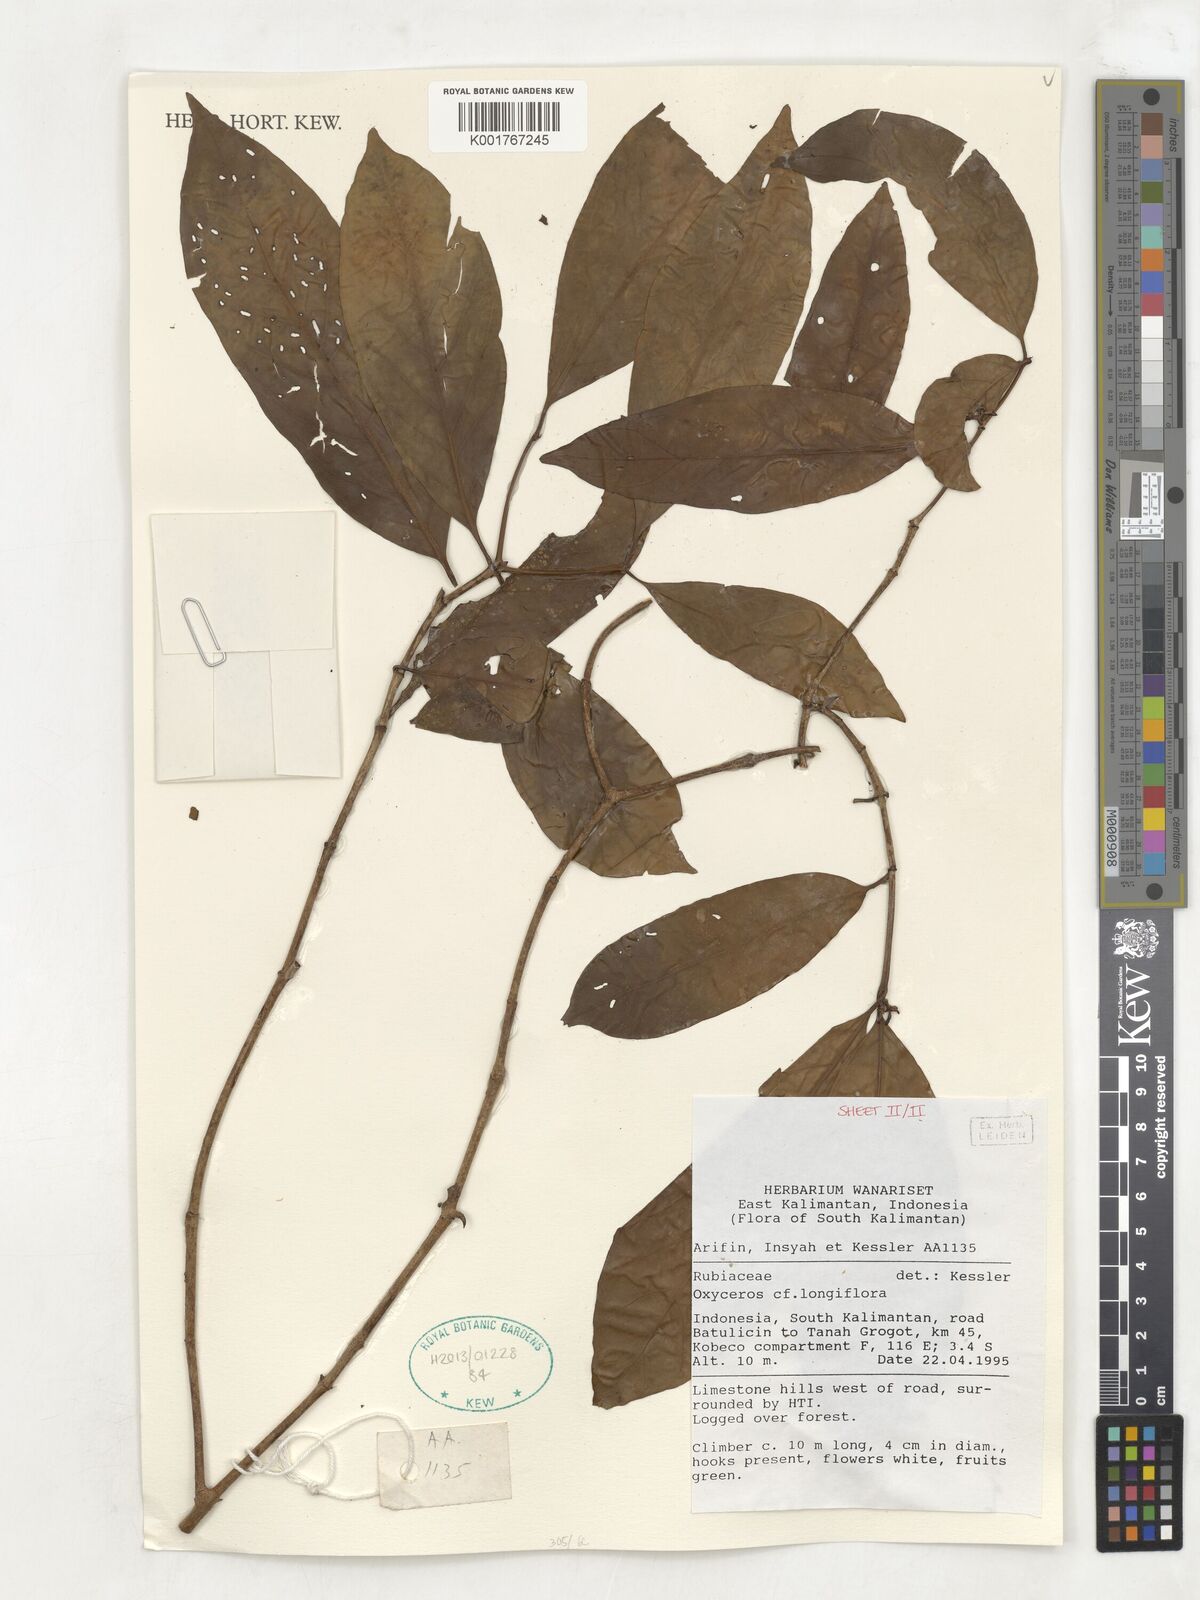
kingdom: Plantae
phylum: Tracheophyta
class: Magnoliopsida
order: Gentianales
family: Rubiaceae
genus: Oxyceros
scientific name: Oxyceros longiflorus
